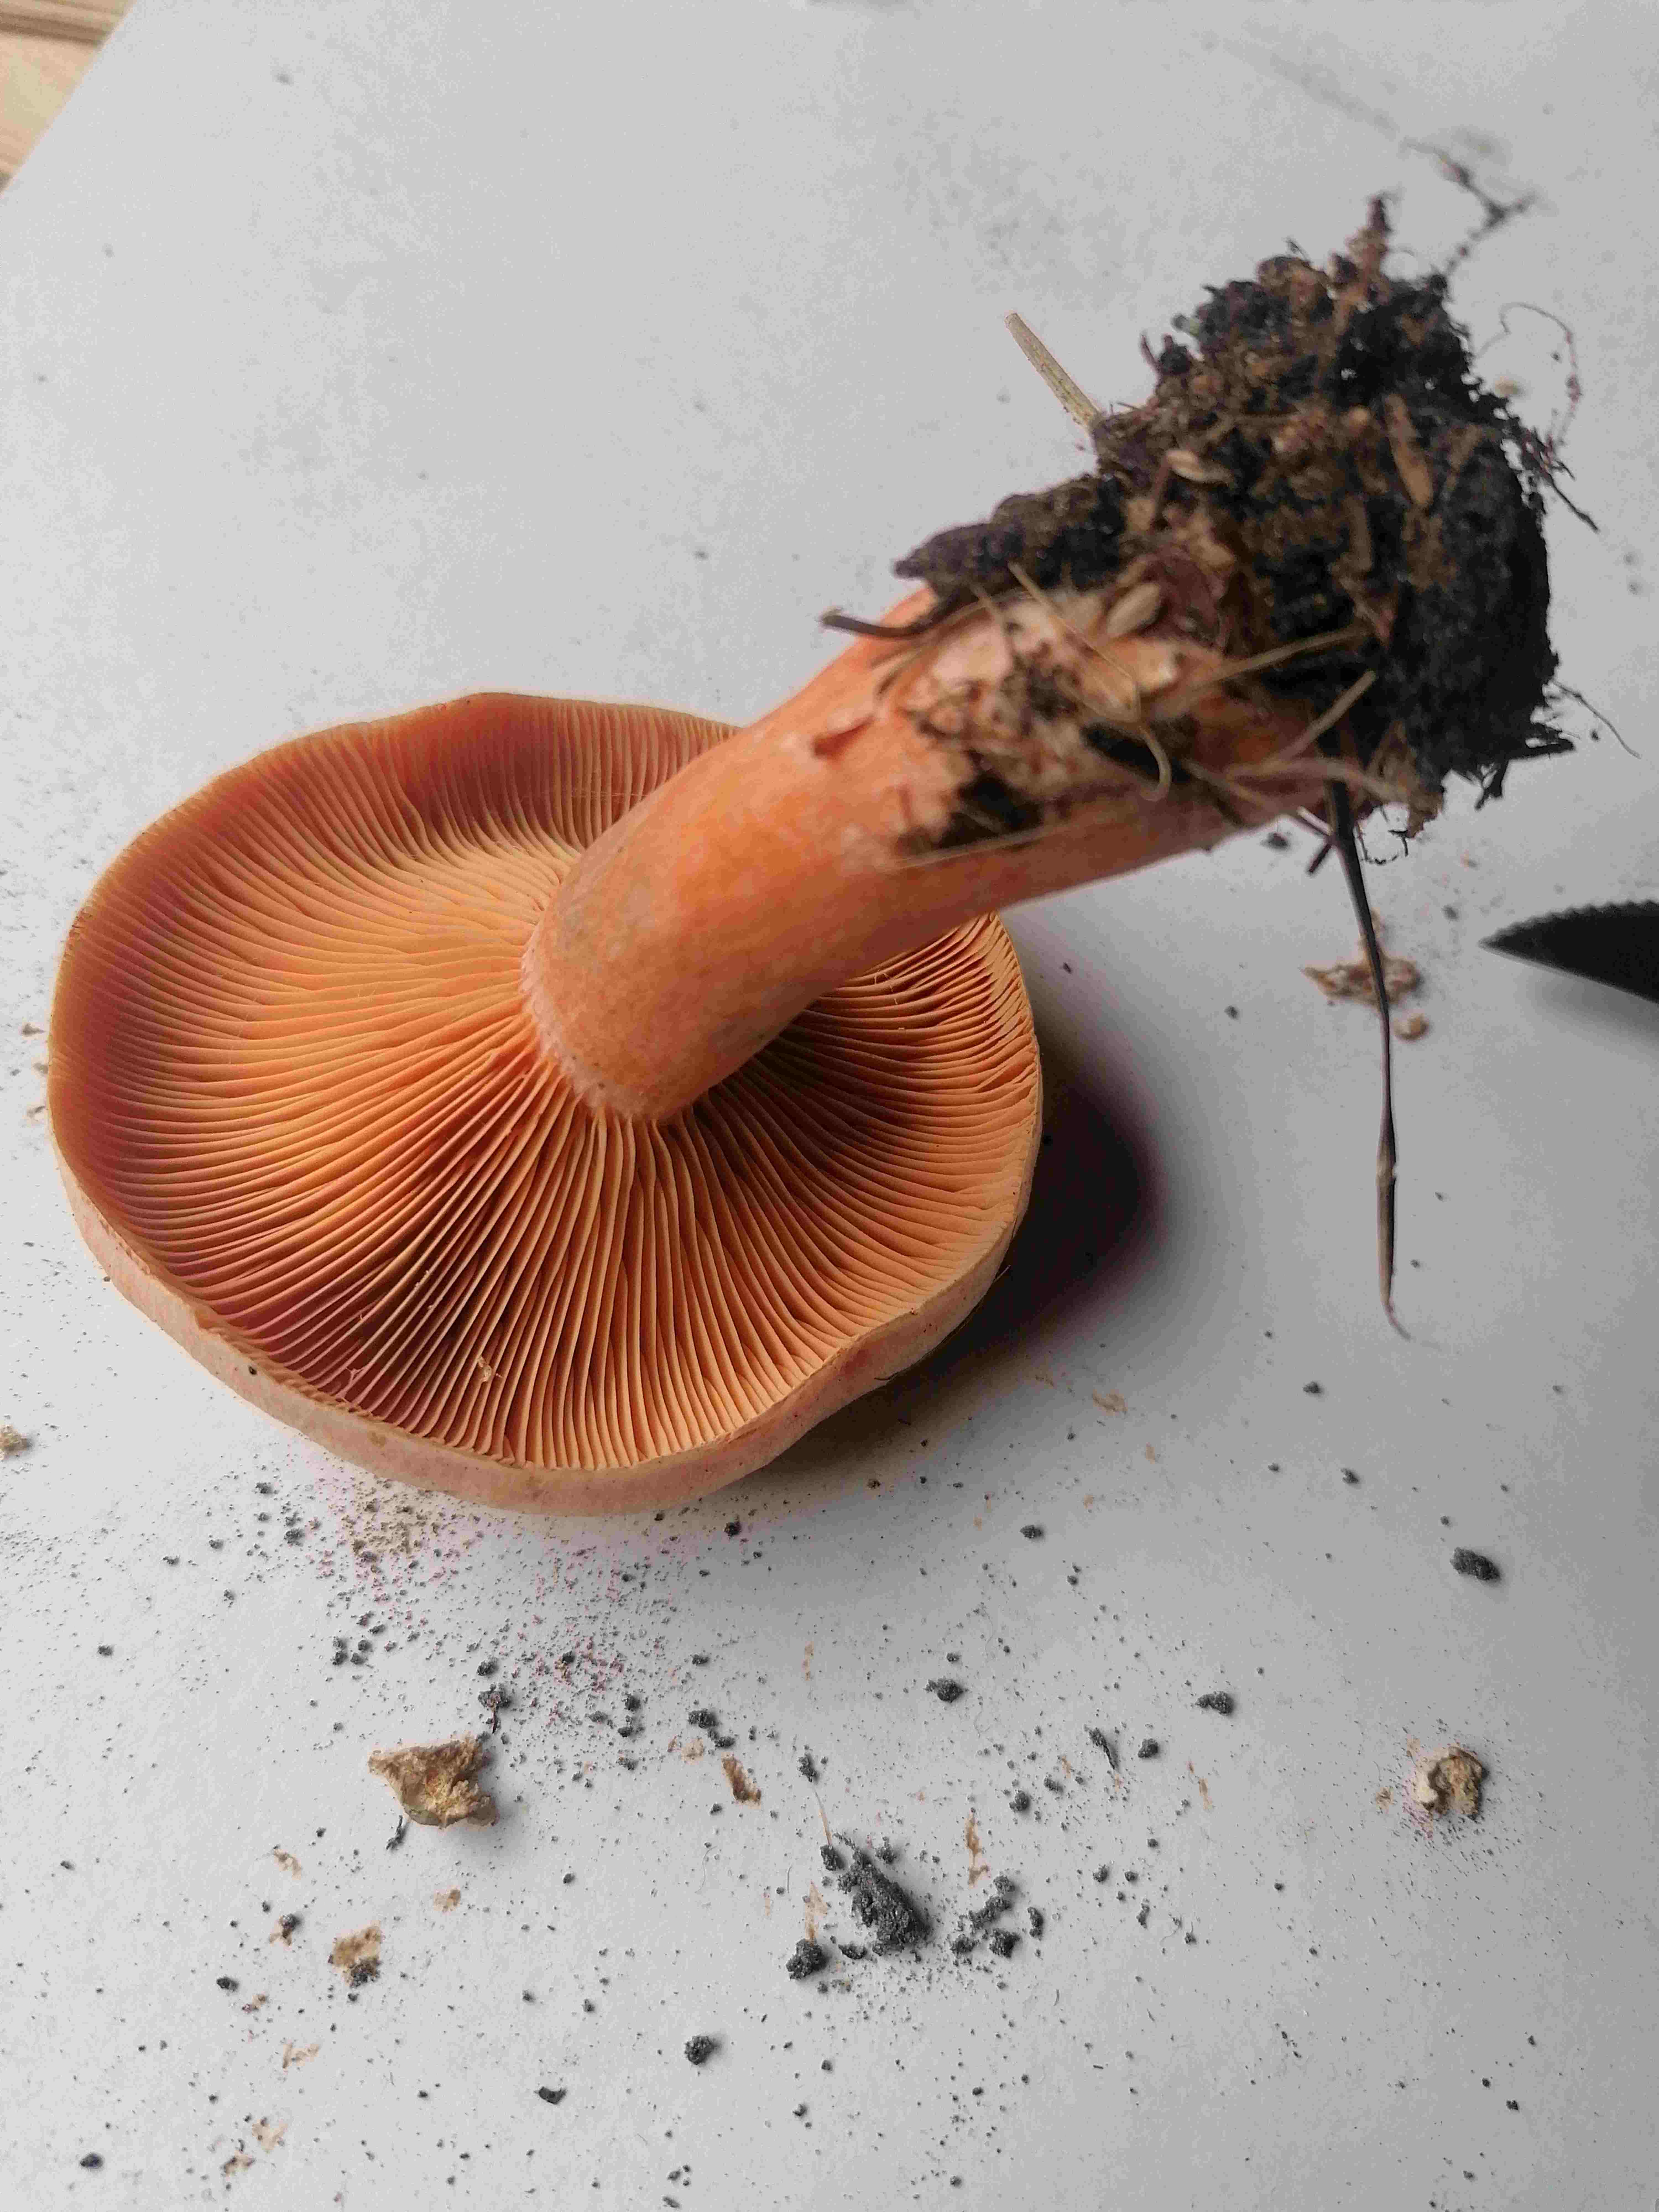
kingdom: Fungi
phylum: Basidiomycota
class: Agaricomycetes
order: Russulales
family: Russulaceae
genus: Lactarius
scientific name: Lactarius deterrimus
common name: gran-mælkehat
